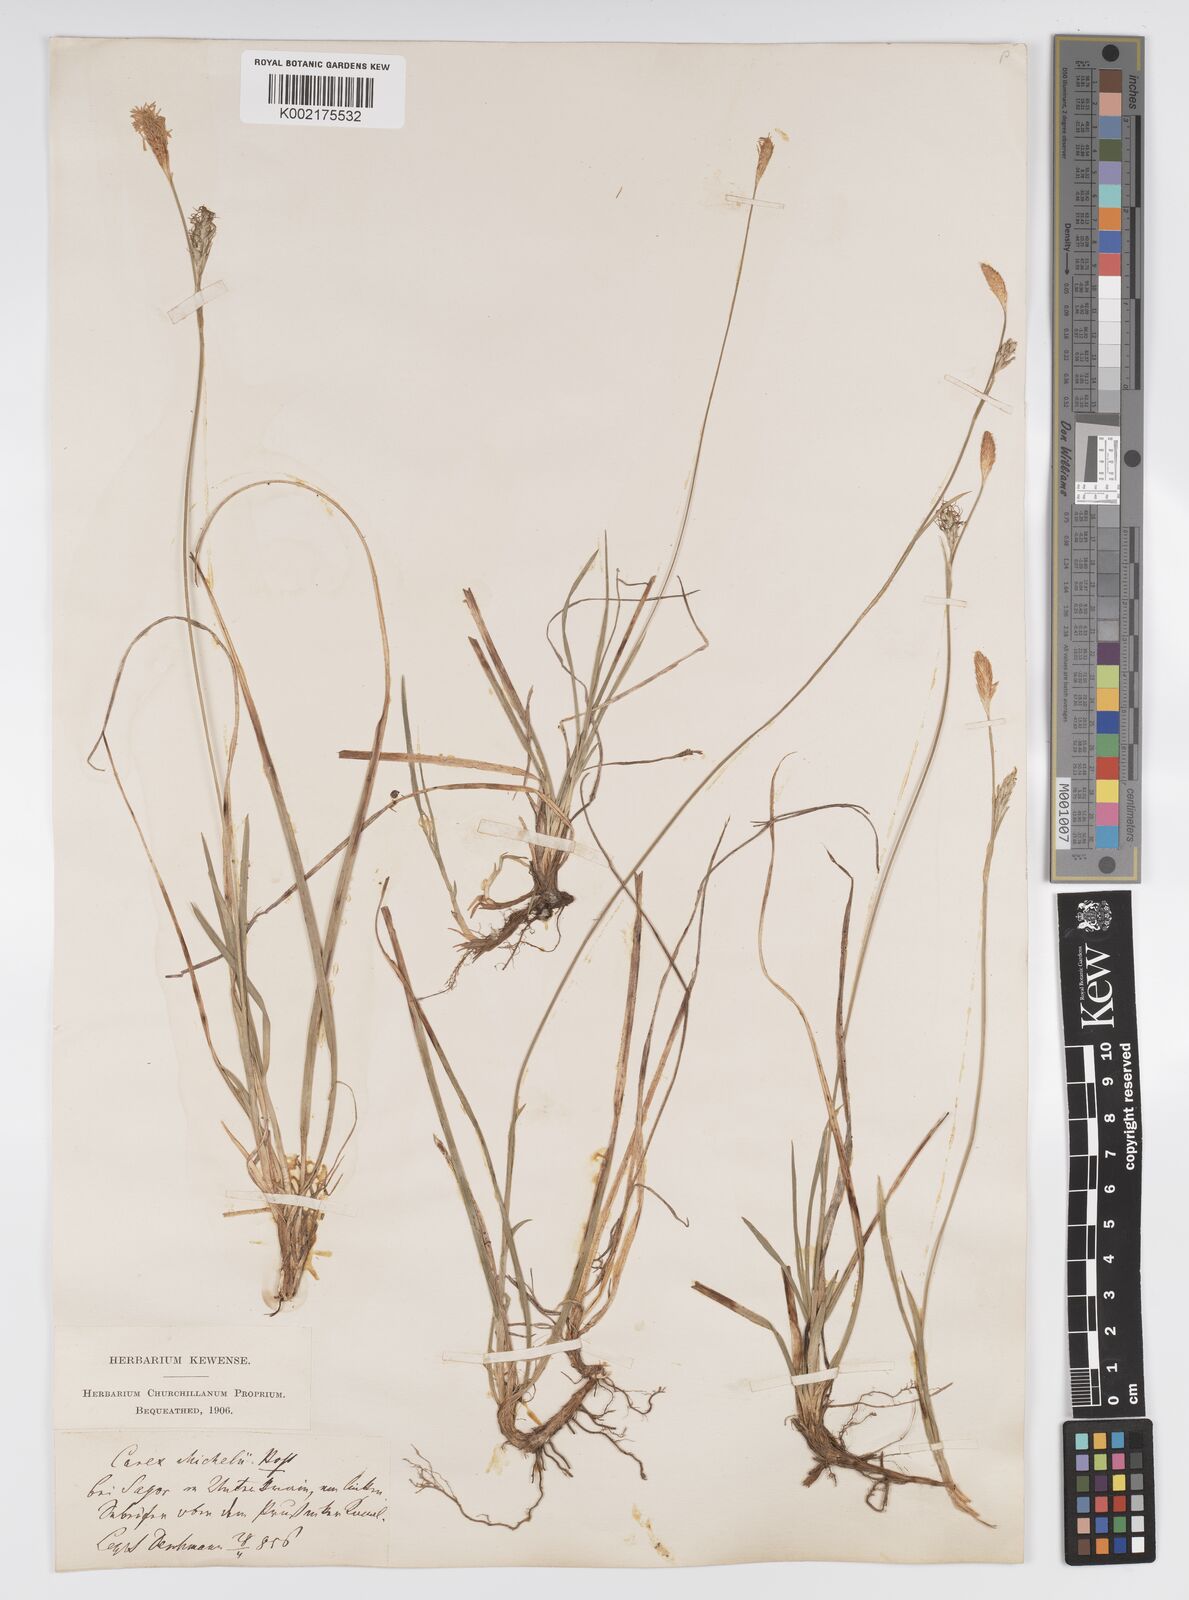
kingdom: Plantae
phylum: Tracheophyta
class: Liliopsida
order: Poales
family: Cyperaceae
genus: Carex
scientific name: Carex michelii
